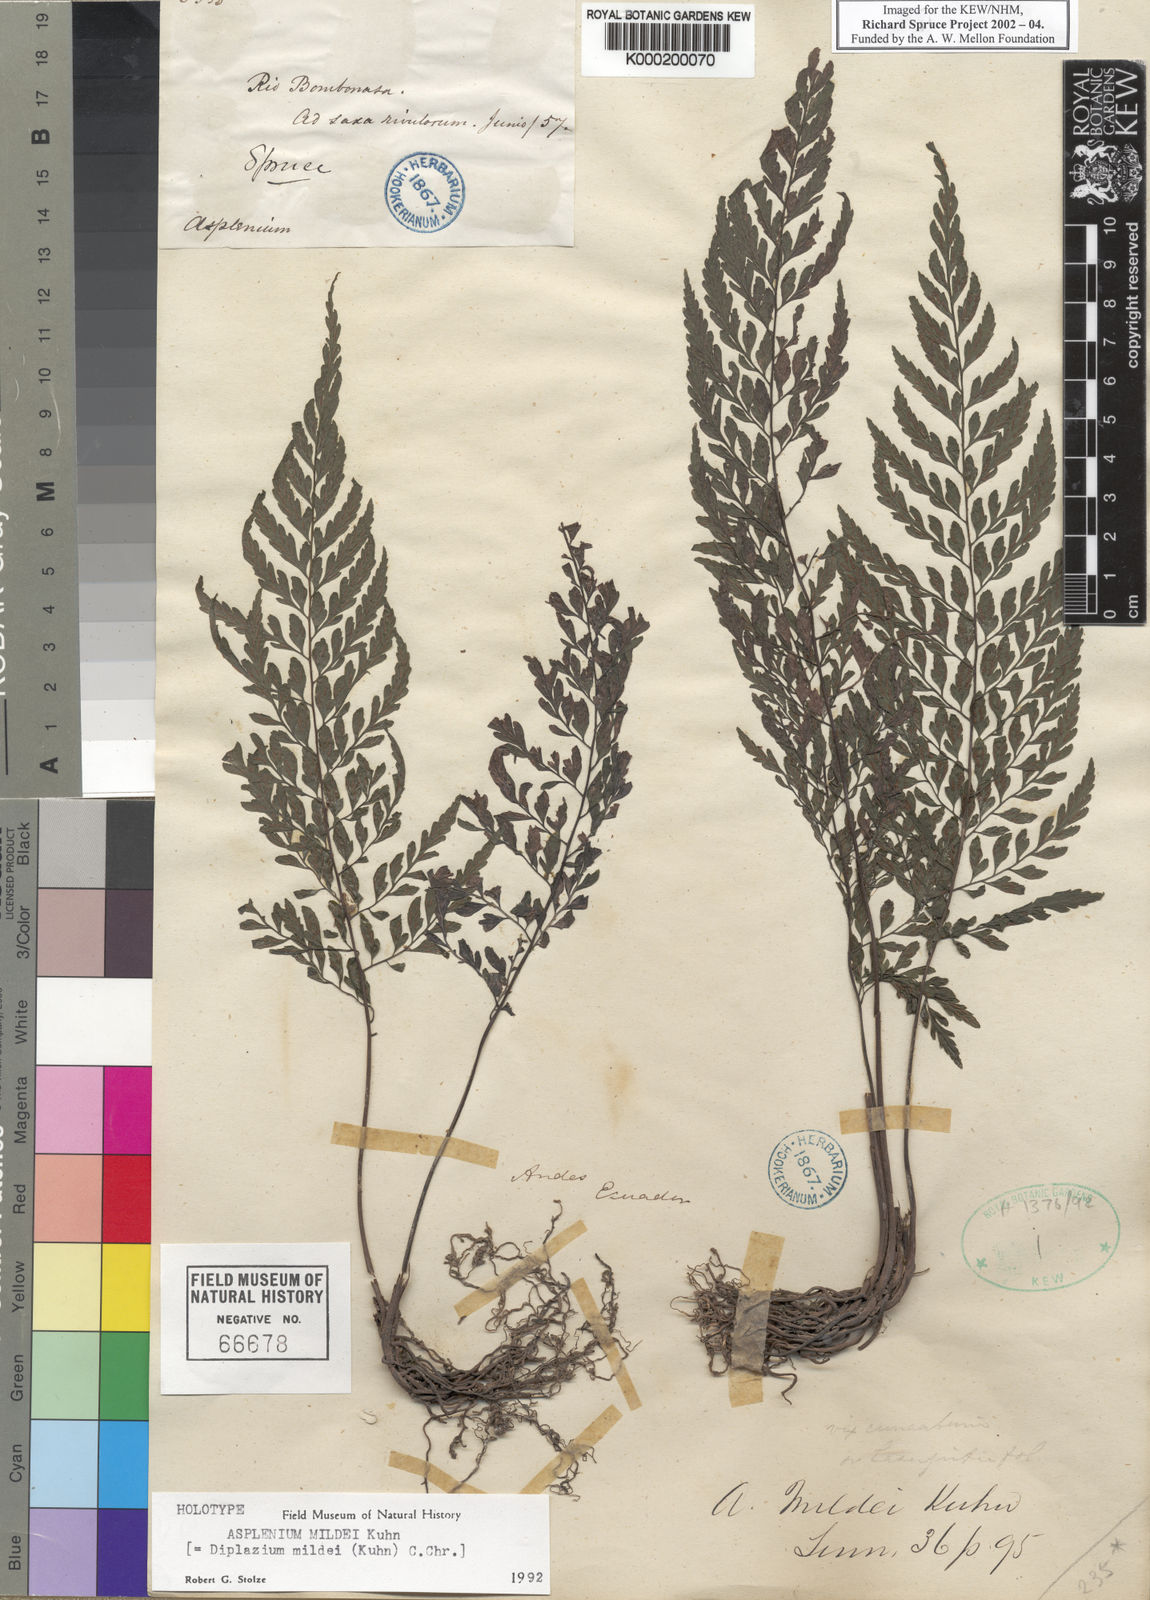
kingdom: Plantae
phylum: Tracheophyta
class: Polypodiopsida
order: Polypodiales
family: Athyriaceae
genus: Diplazium
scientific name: Diplazium mildei
